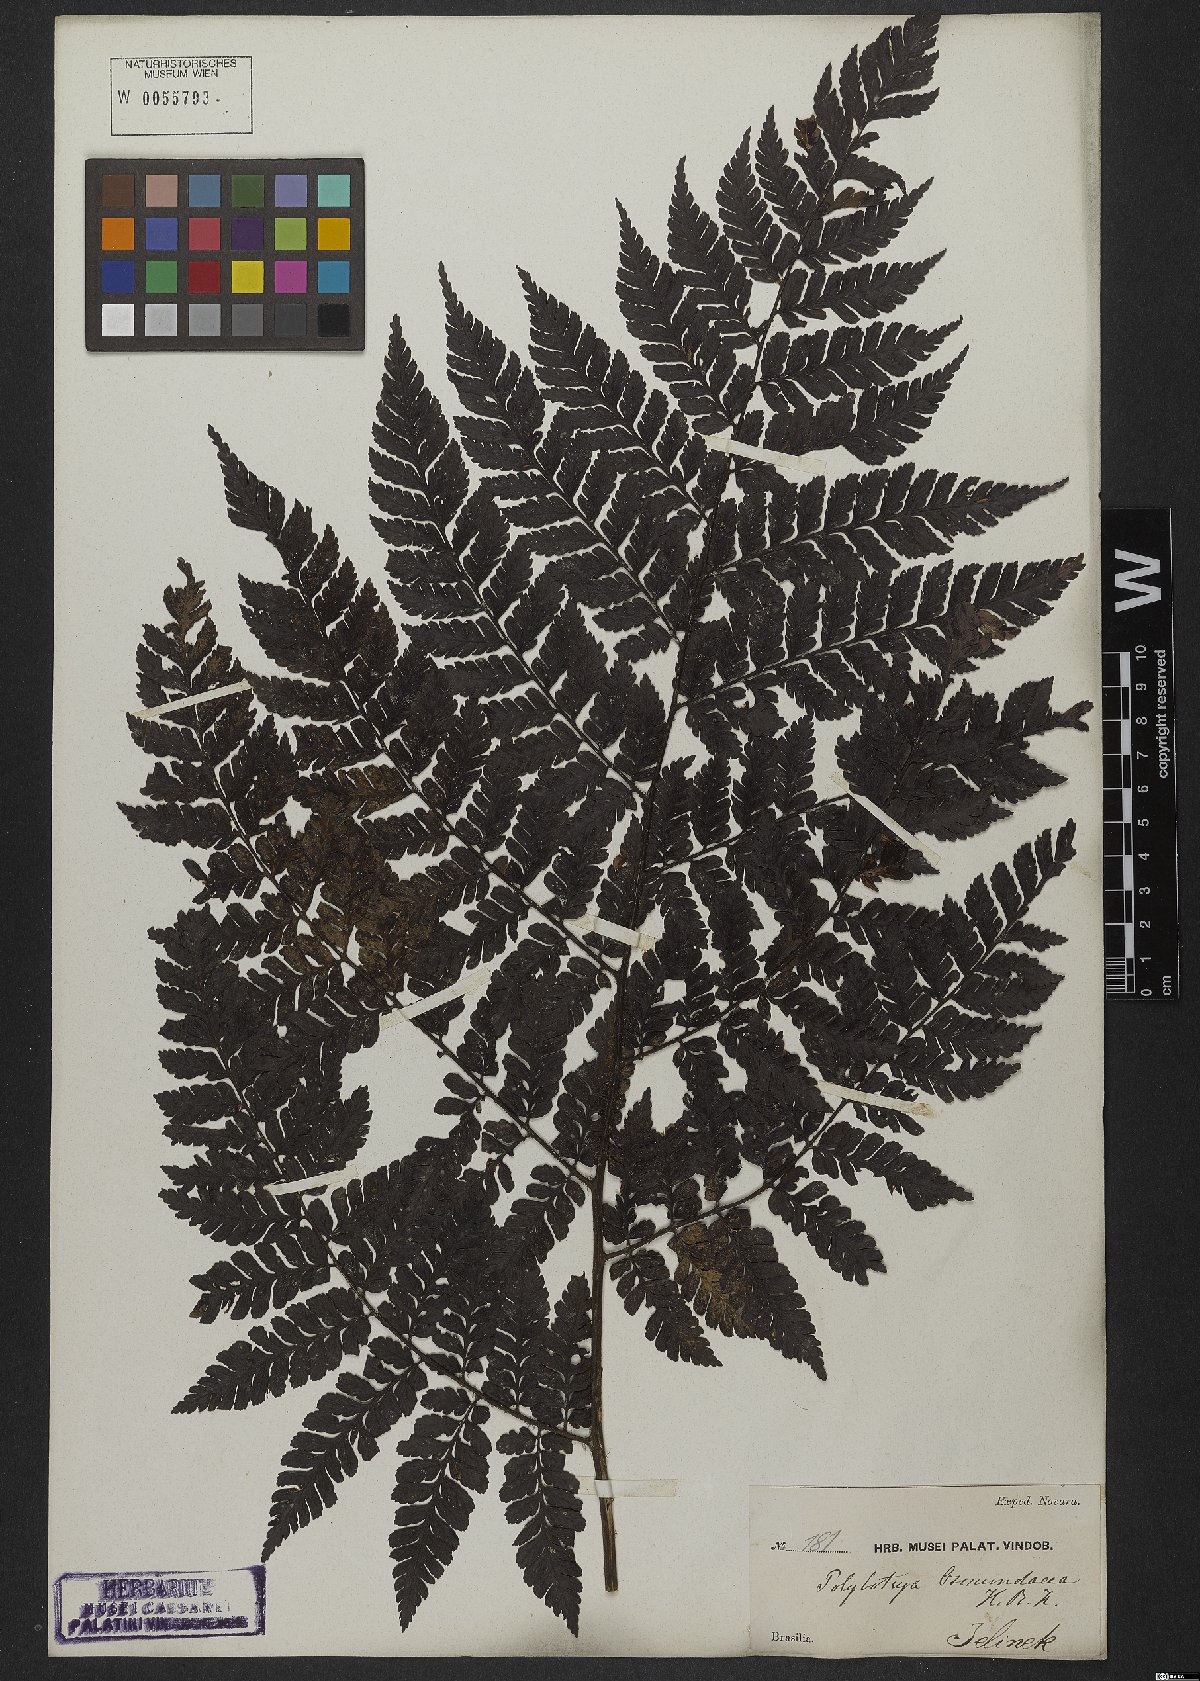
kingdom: Plantae
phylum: Tracheophyta
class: Polypodiopsida
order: Polypodiales
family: Dryopteridaceae
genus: Polybotrya
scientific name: Polybotrya osmundacea
